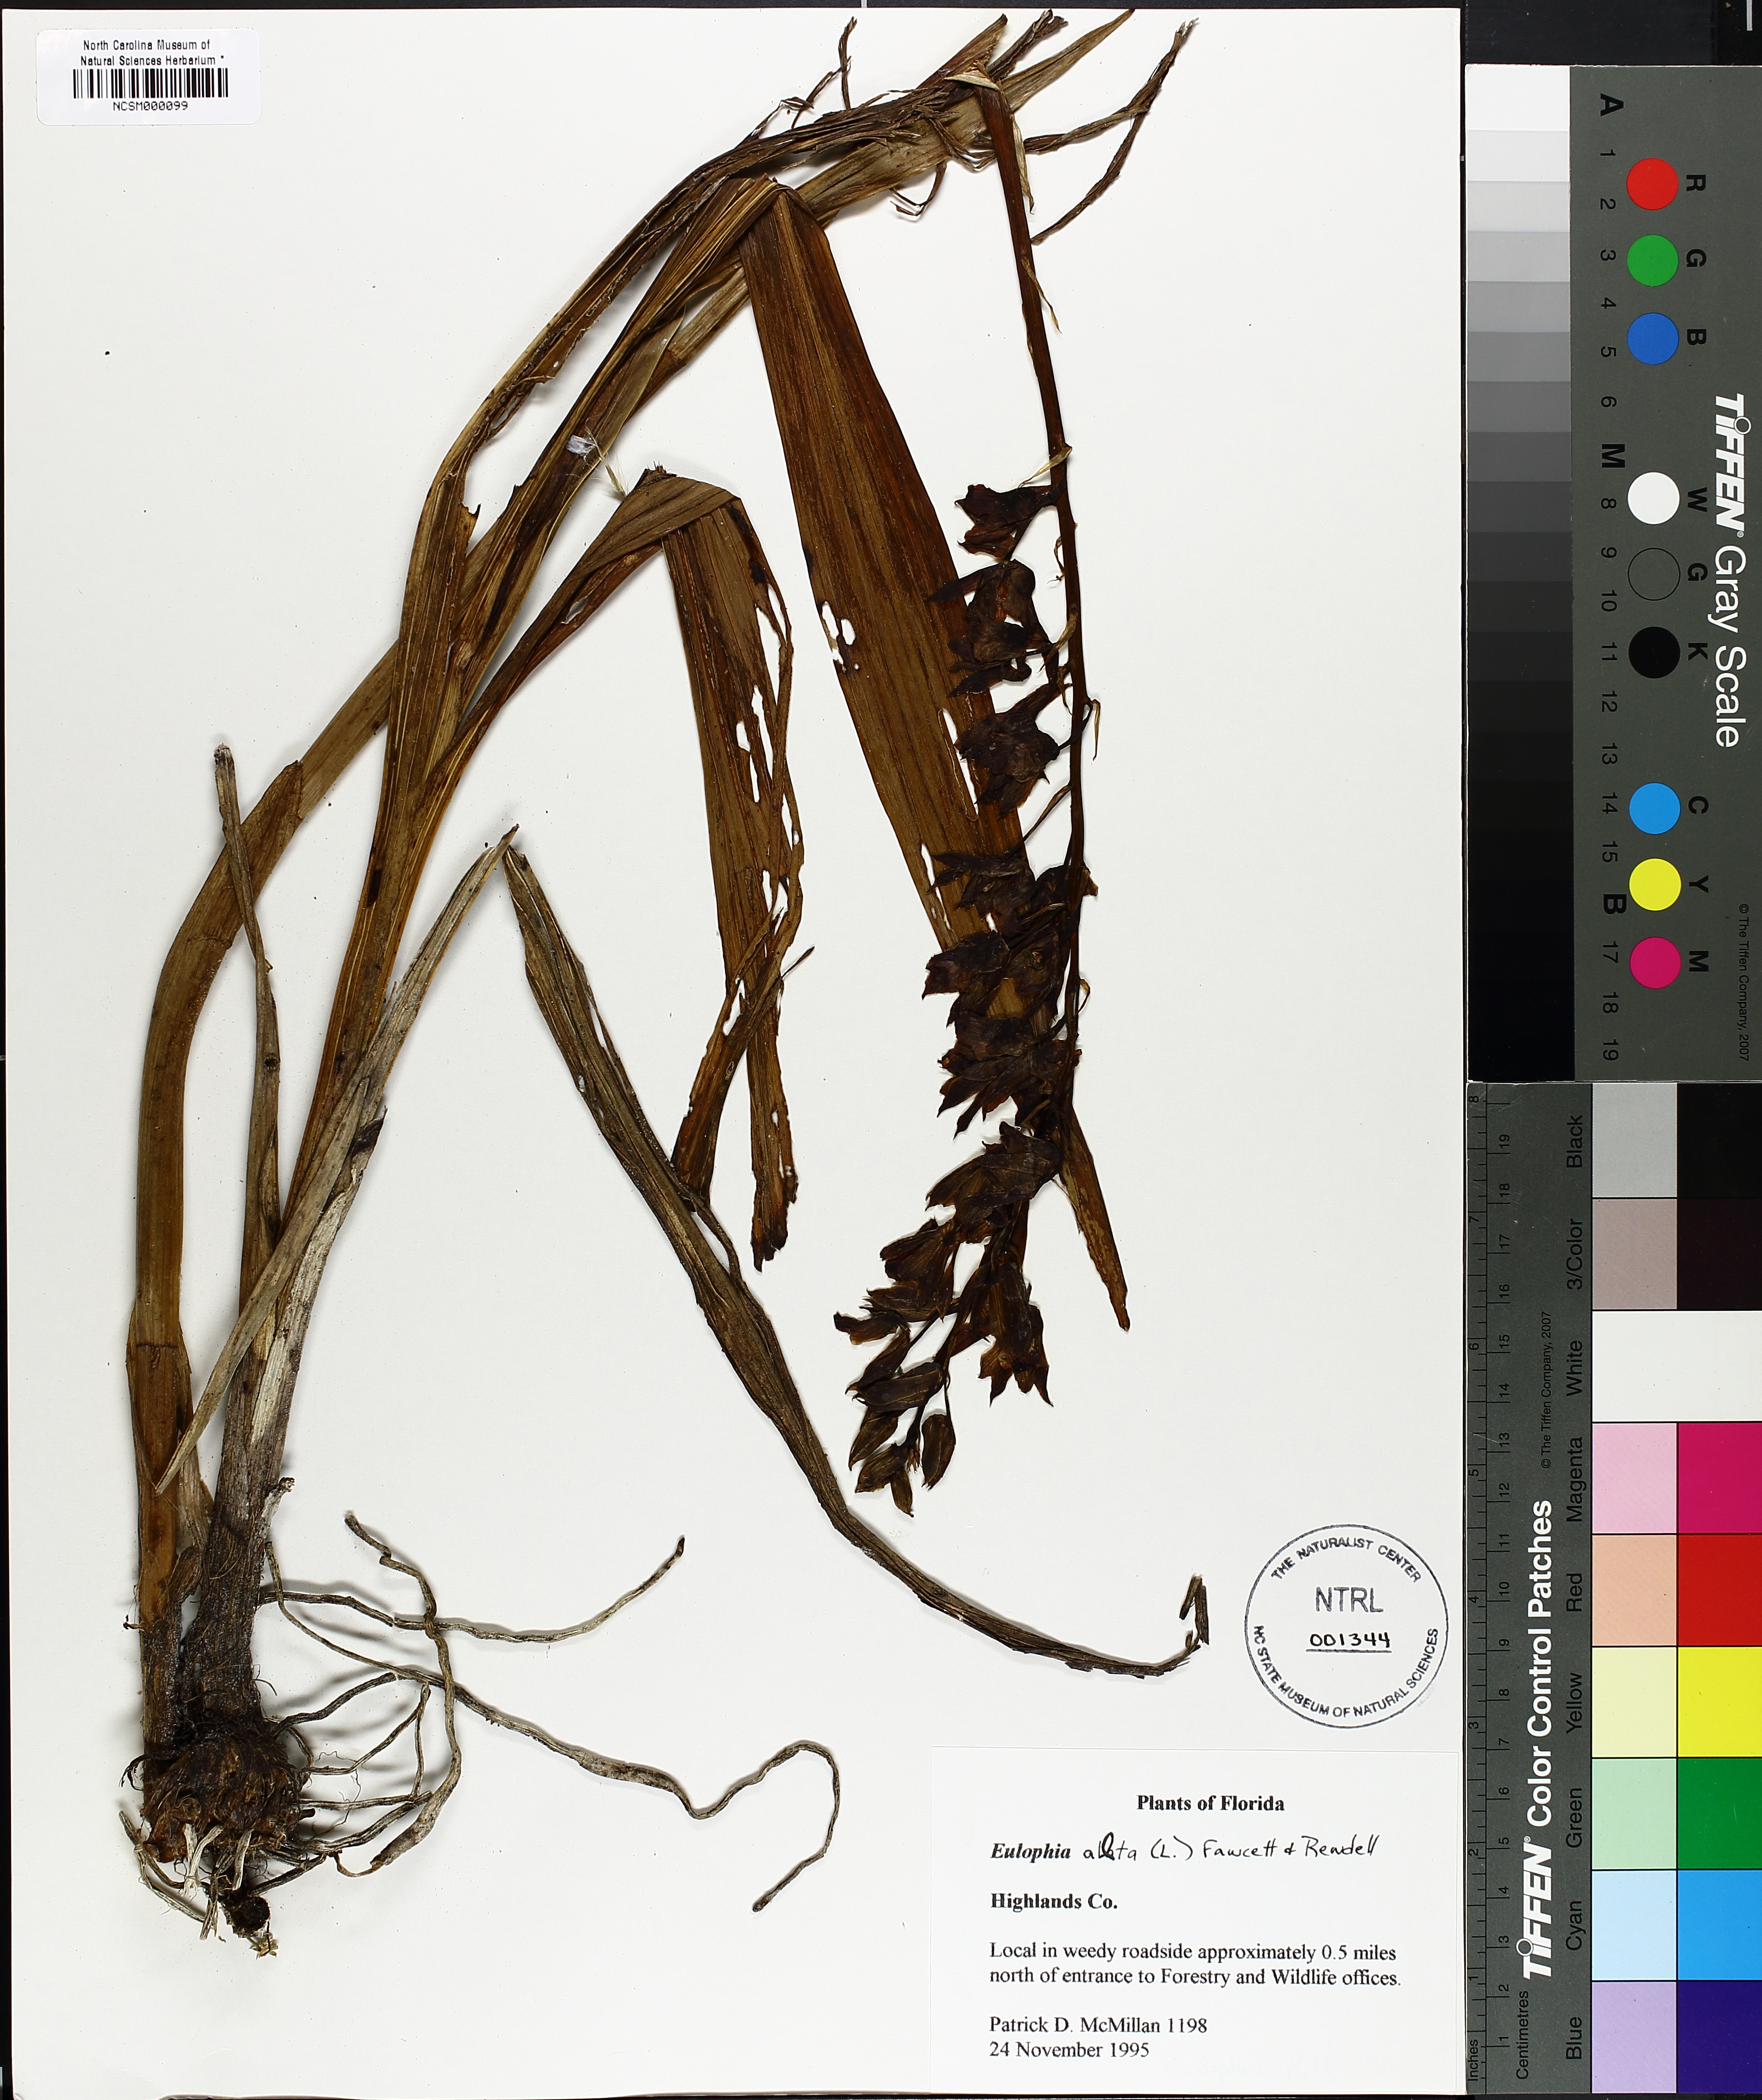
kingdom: Plantae
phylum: Tracheophyta
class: Liliopsida
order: Asparagales
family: Orchidaceae
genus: Eulophia
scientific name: Eulophia alta
